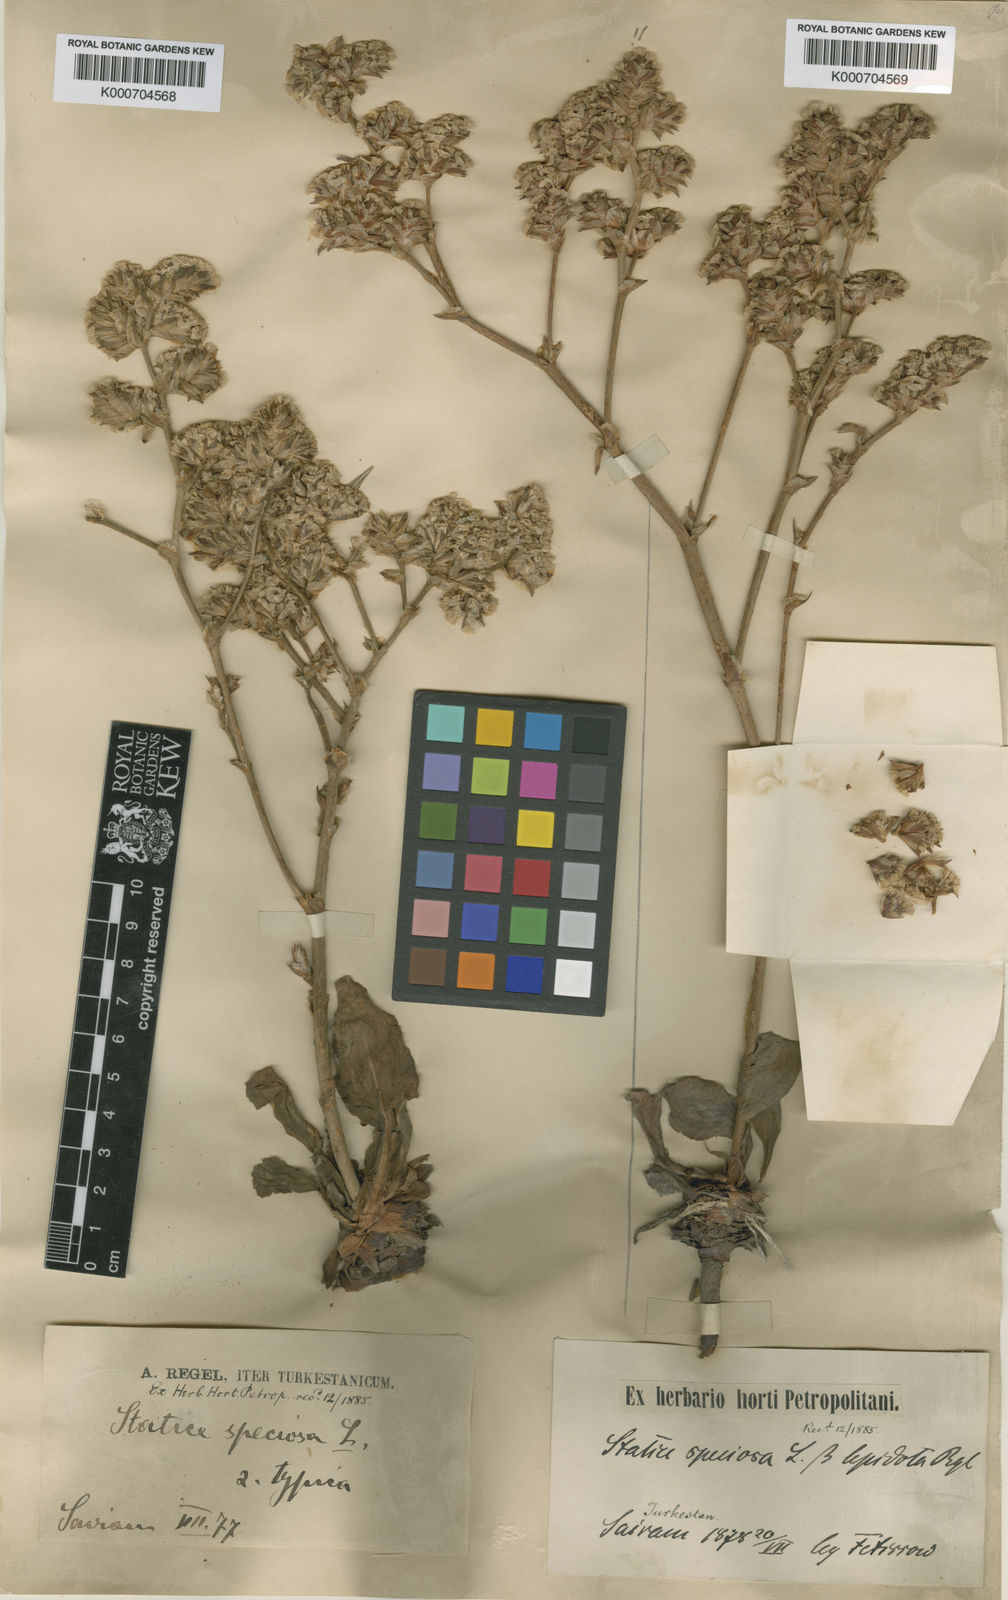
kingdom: Plantae
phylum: Tracheophyta
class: Magnoliopsida
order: Caryophyllales
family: Plumbaginaceae
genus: Goniolimon
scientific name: Goniolimon speciosum
